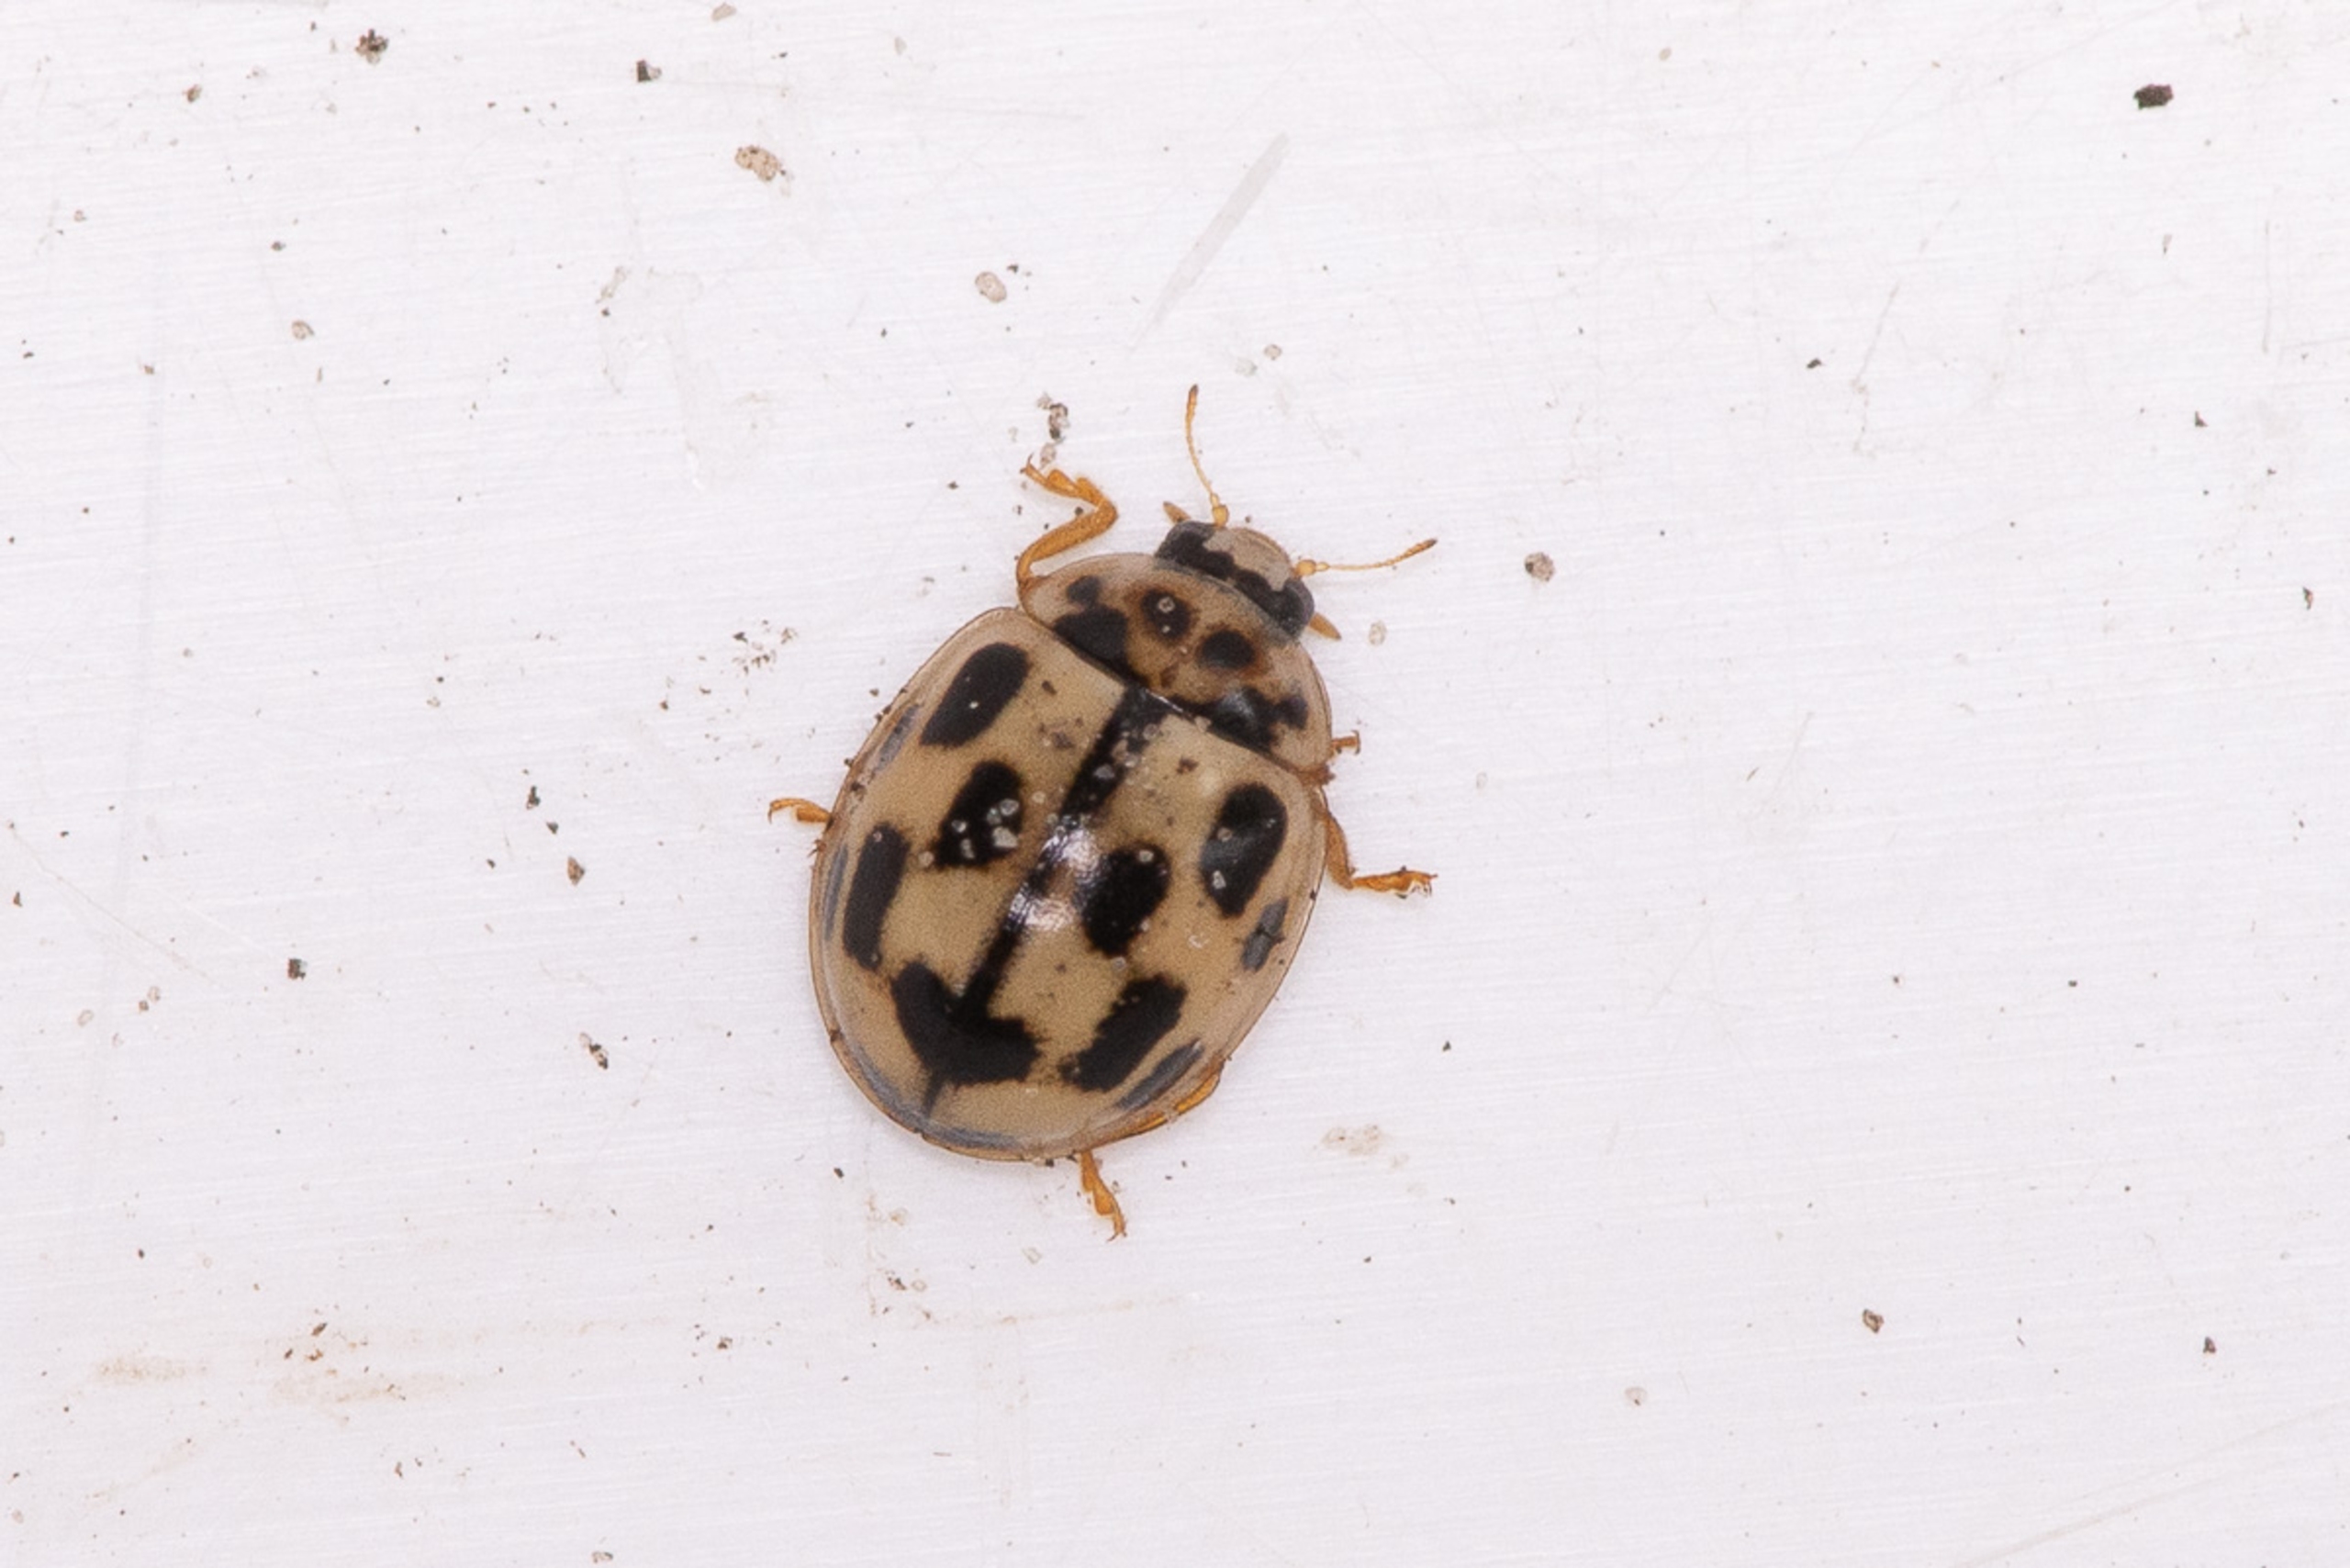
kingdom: Animalia
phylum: Arthropoda
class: Insecta
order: Coleoptera
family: Coccinellidae
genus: Propylaea
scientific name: Propylaea quatuordecimpunctata
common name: Skakbræt
